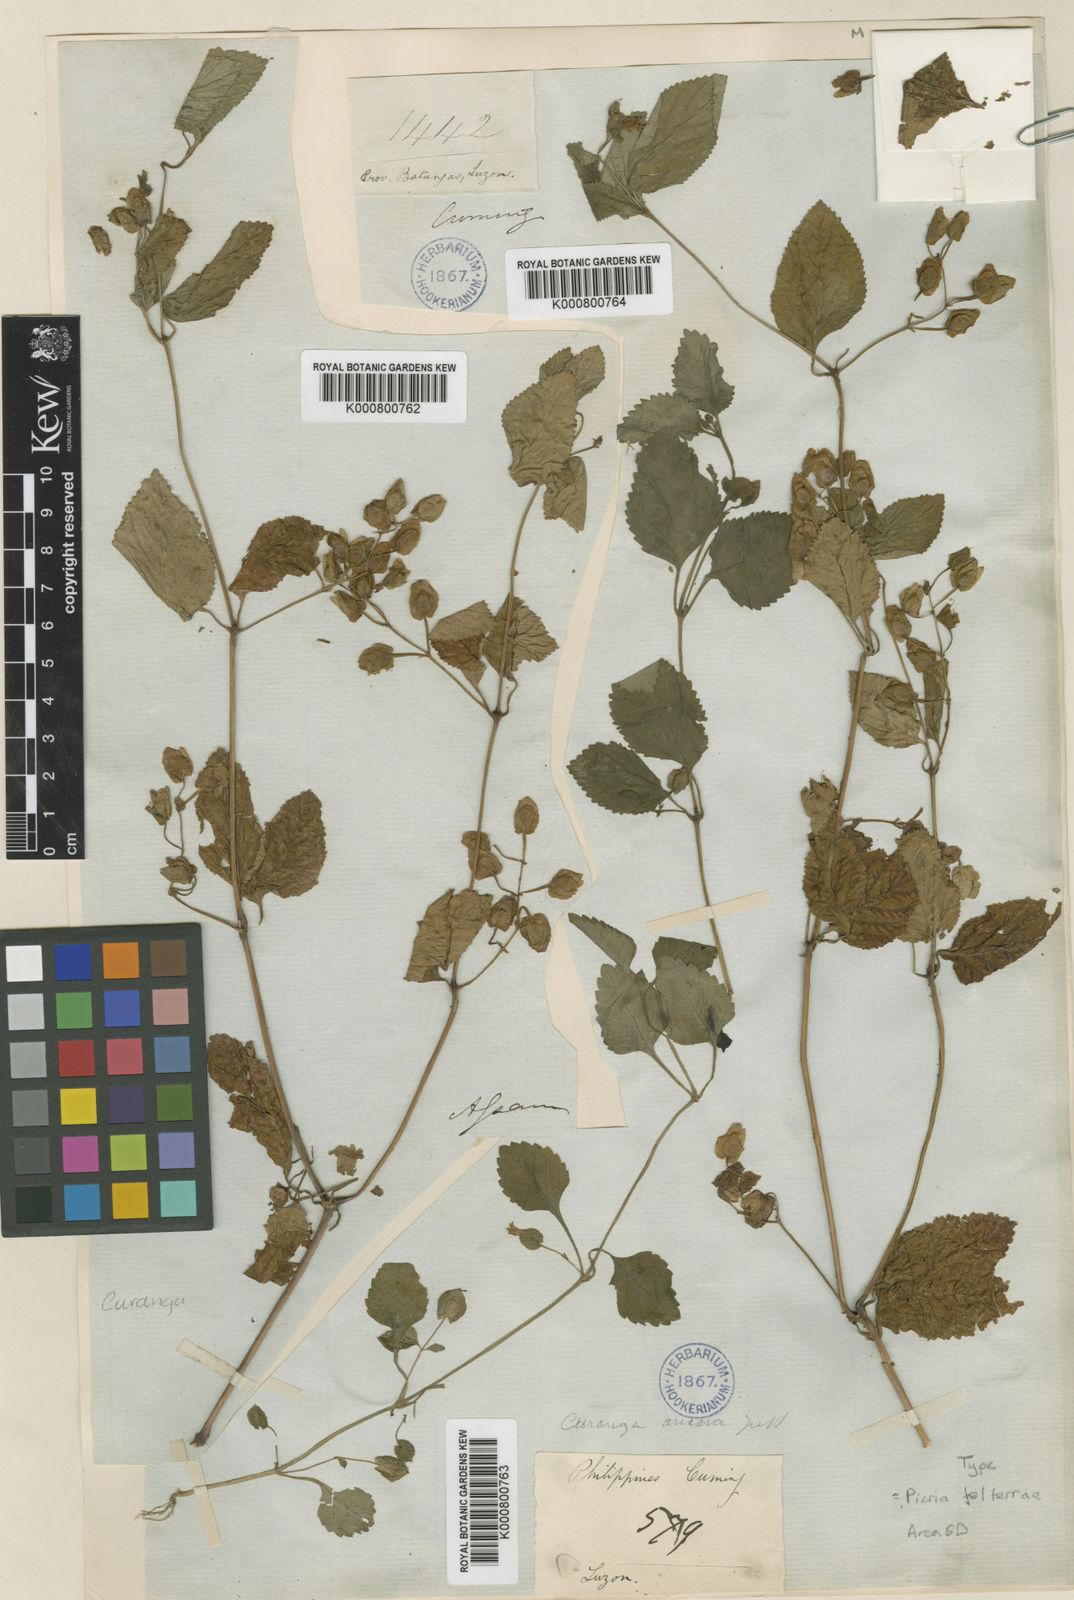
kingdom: Plantae
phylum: Tracheophyta
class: Magnoliopsida
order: Lamiales
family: Linderniaceae
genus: Picria
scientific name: Picria
